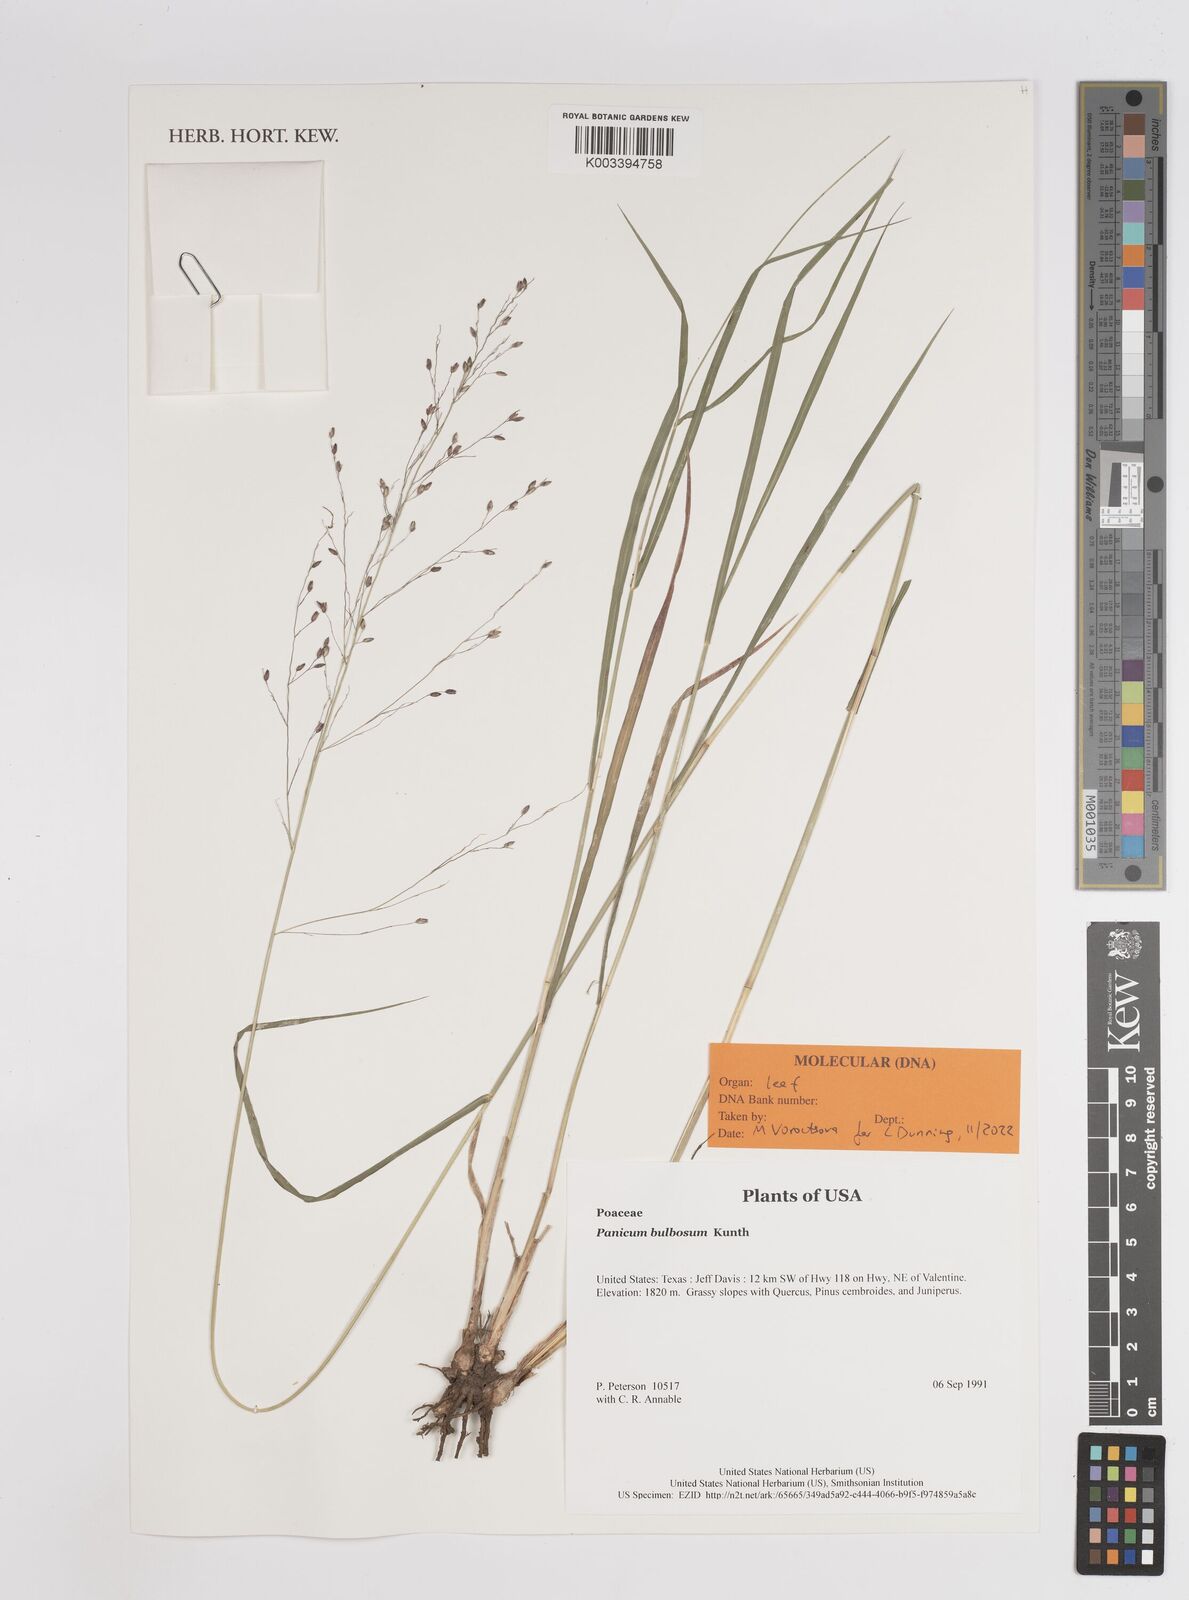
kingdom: Plantae
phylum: Tracheophyta
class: Liliopsida
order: Poales
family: Poaceae
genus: Zuloagaea
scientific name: Zuloagaea bulbosa
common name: Canyon panic grass
